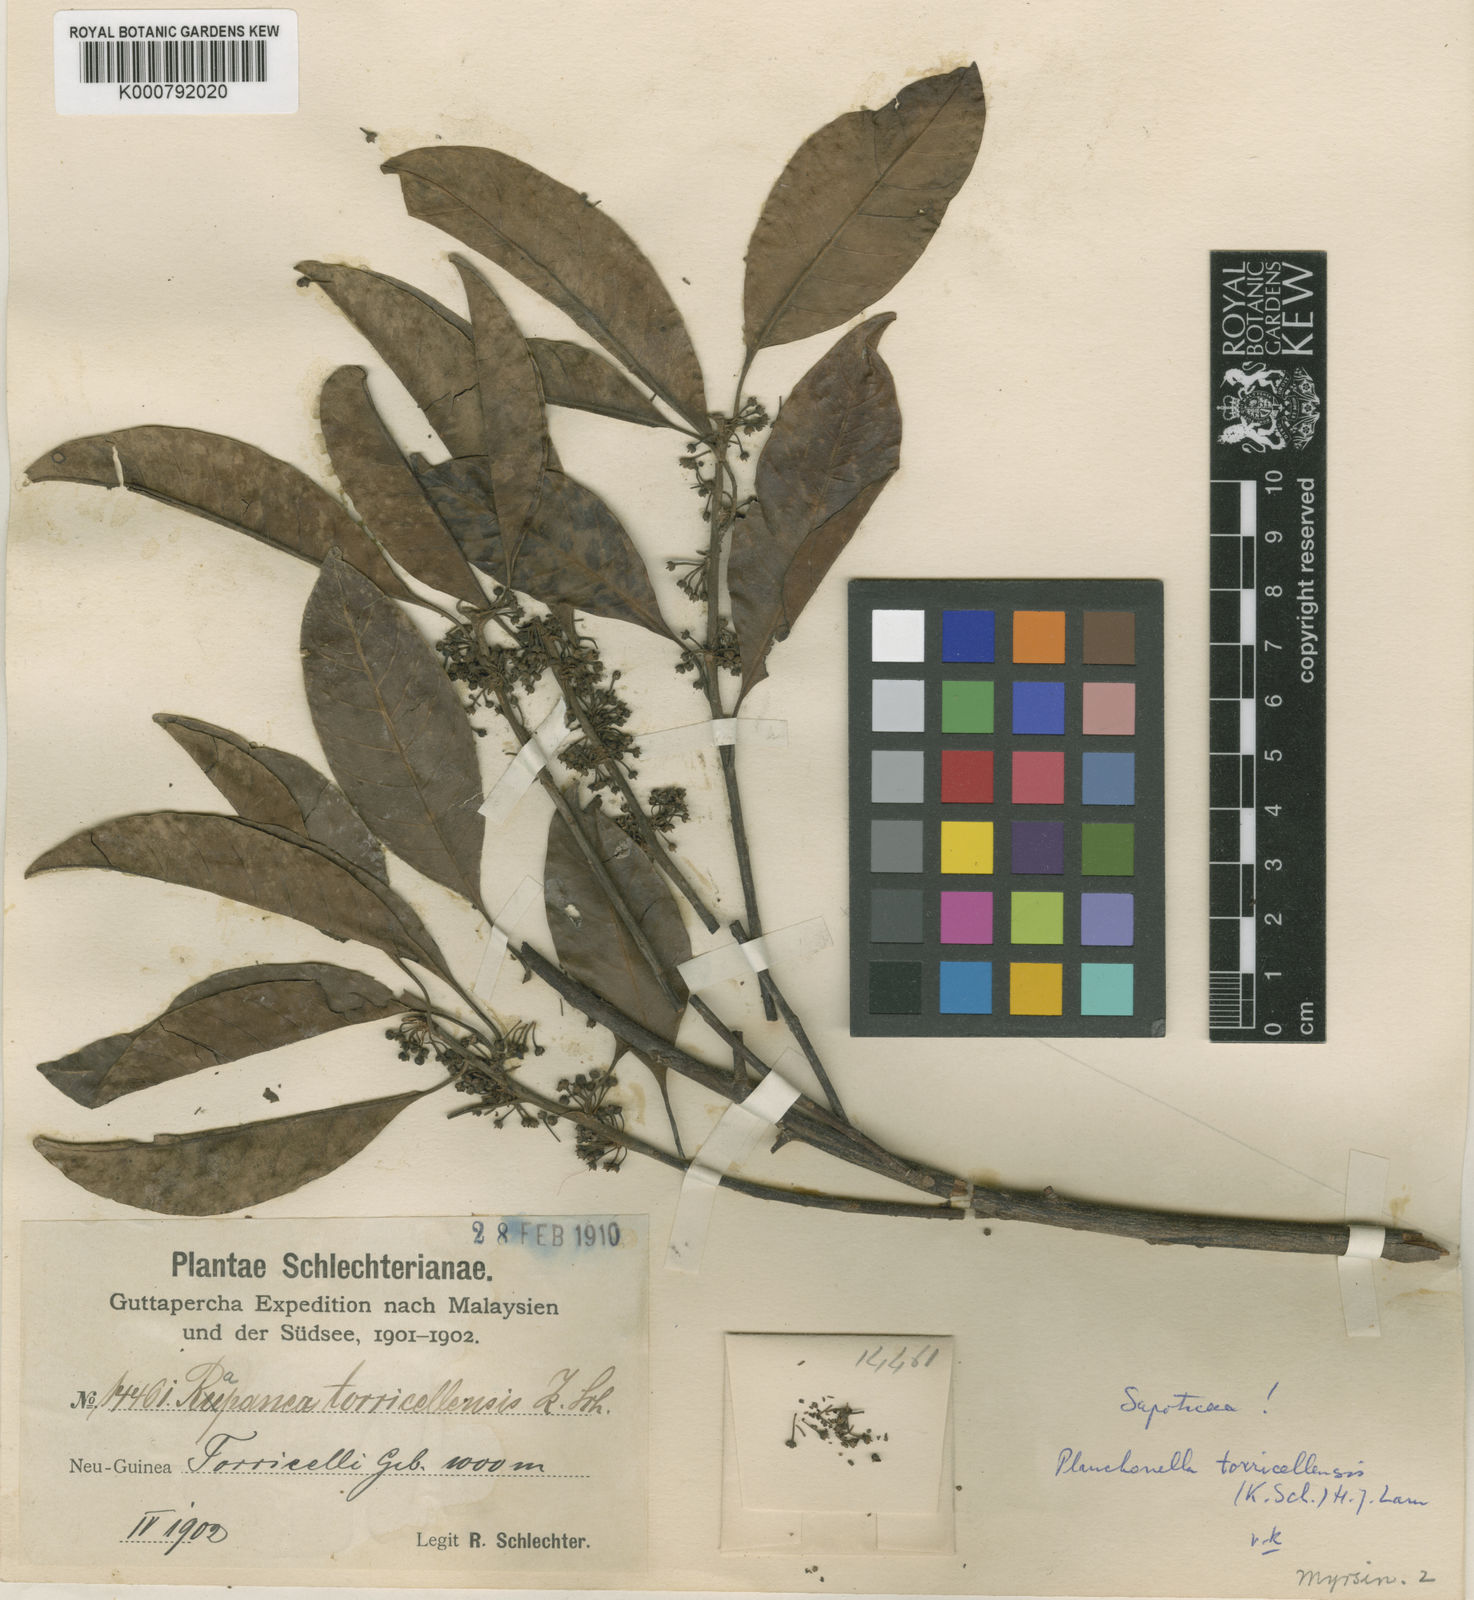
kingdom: Plantae
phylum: Tracheophyta
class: Magnoliopsida
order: Ericales
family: Sapotaceae
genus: Planchonella
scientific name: Planchonella torricellensis
